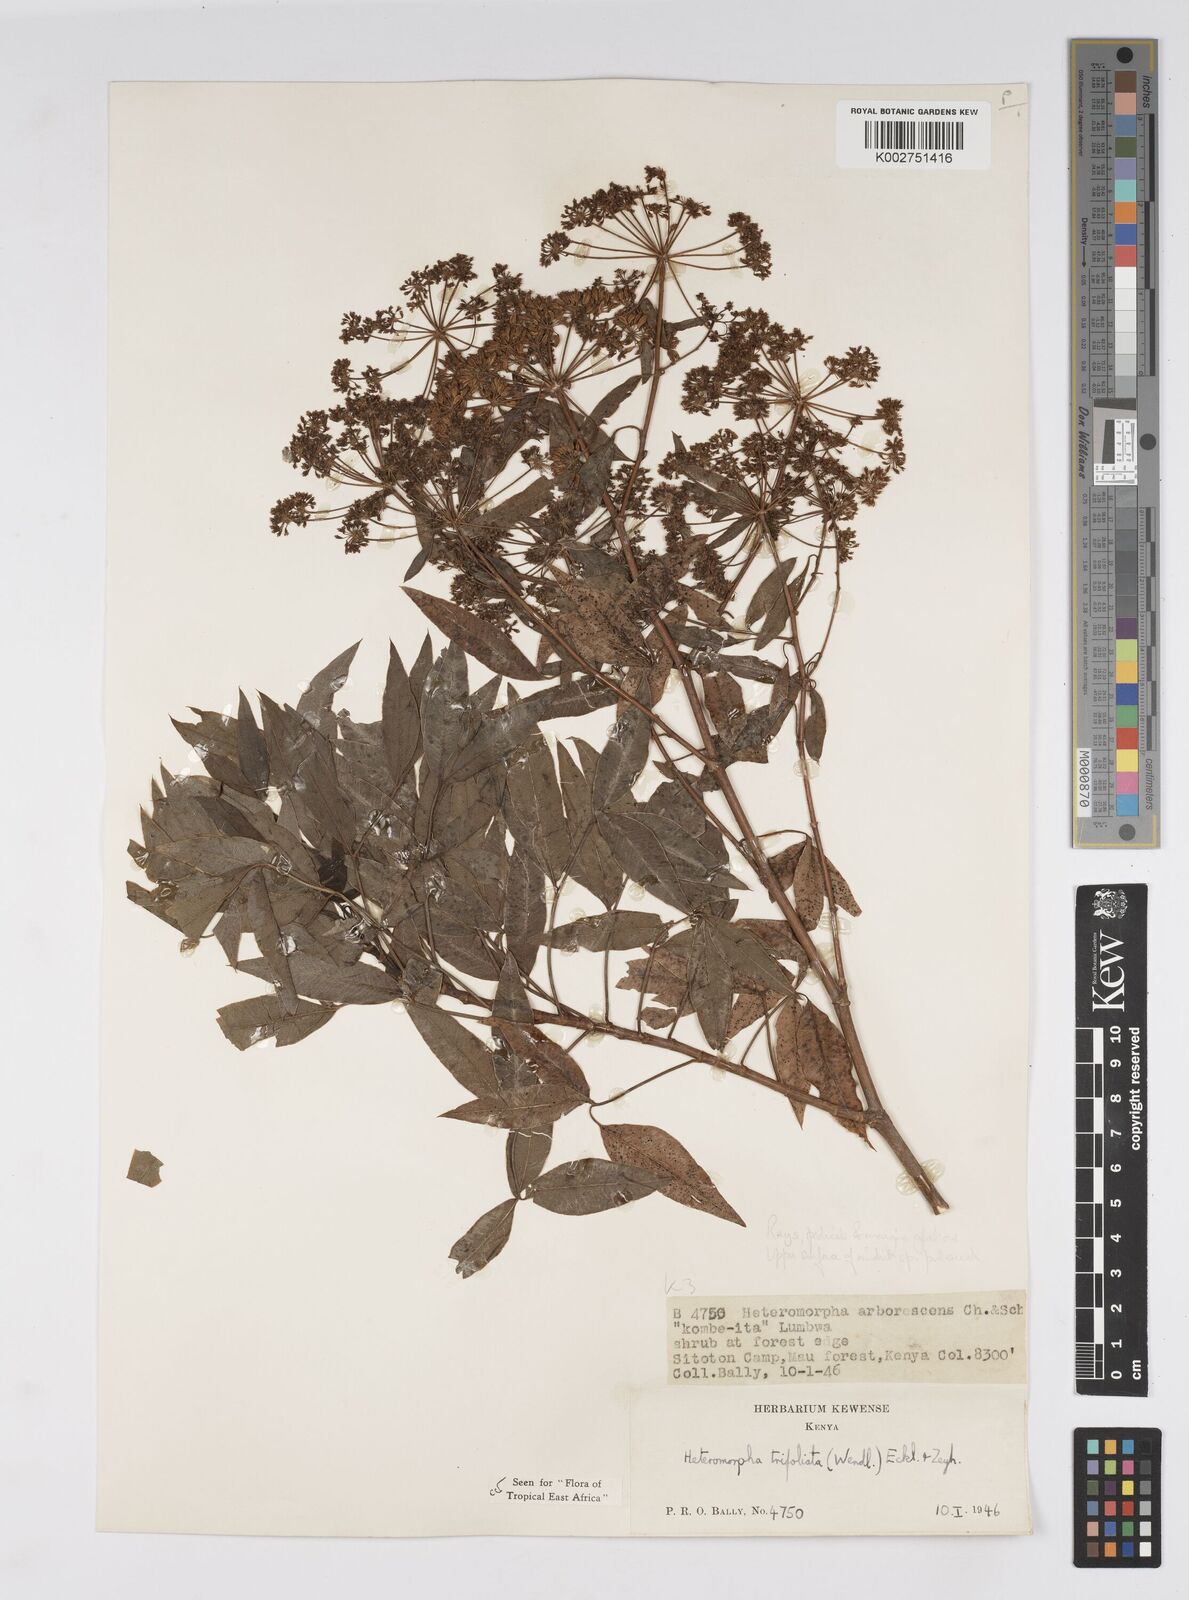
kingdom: Plantae
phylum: Tracheophyta
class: Magnoliopsida
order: Apiales
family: Apiaceae
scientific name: Apiaceae
